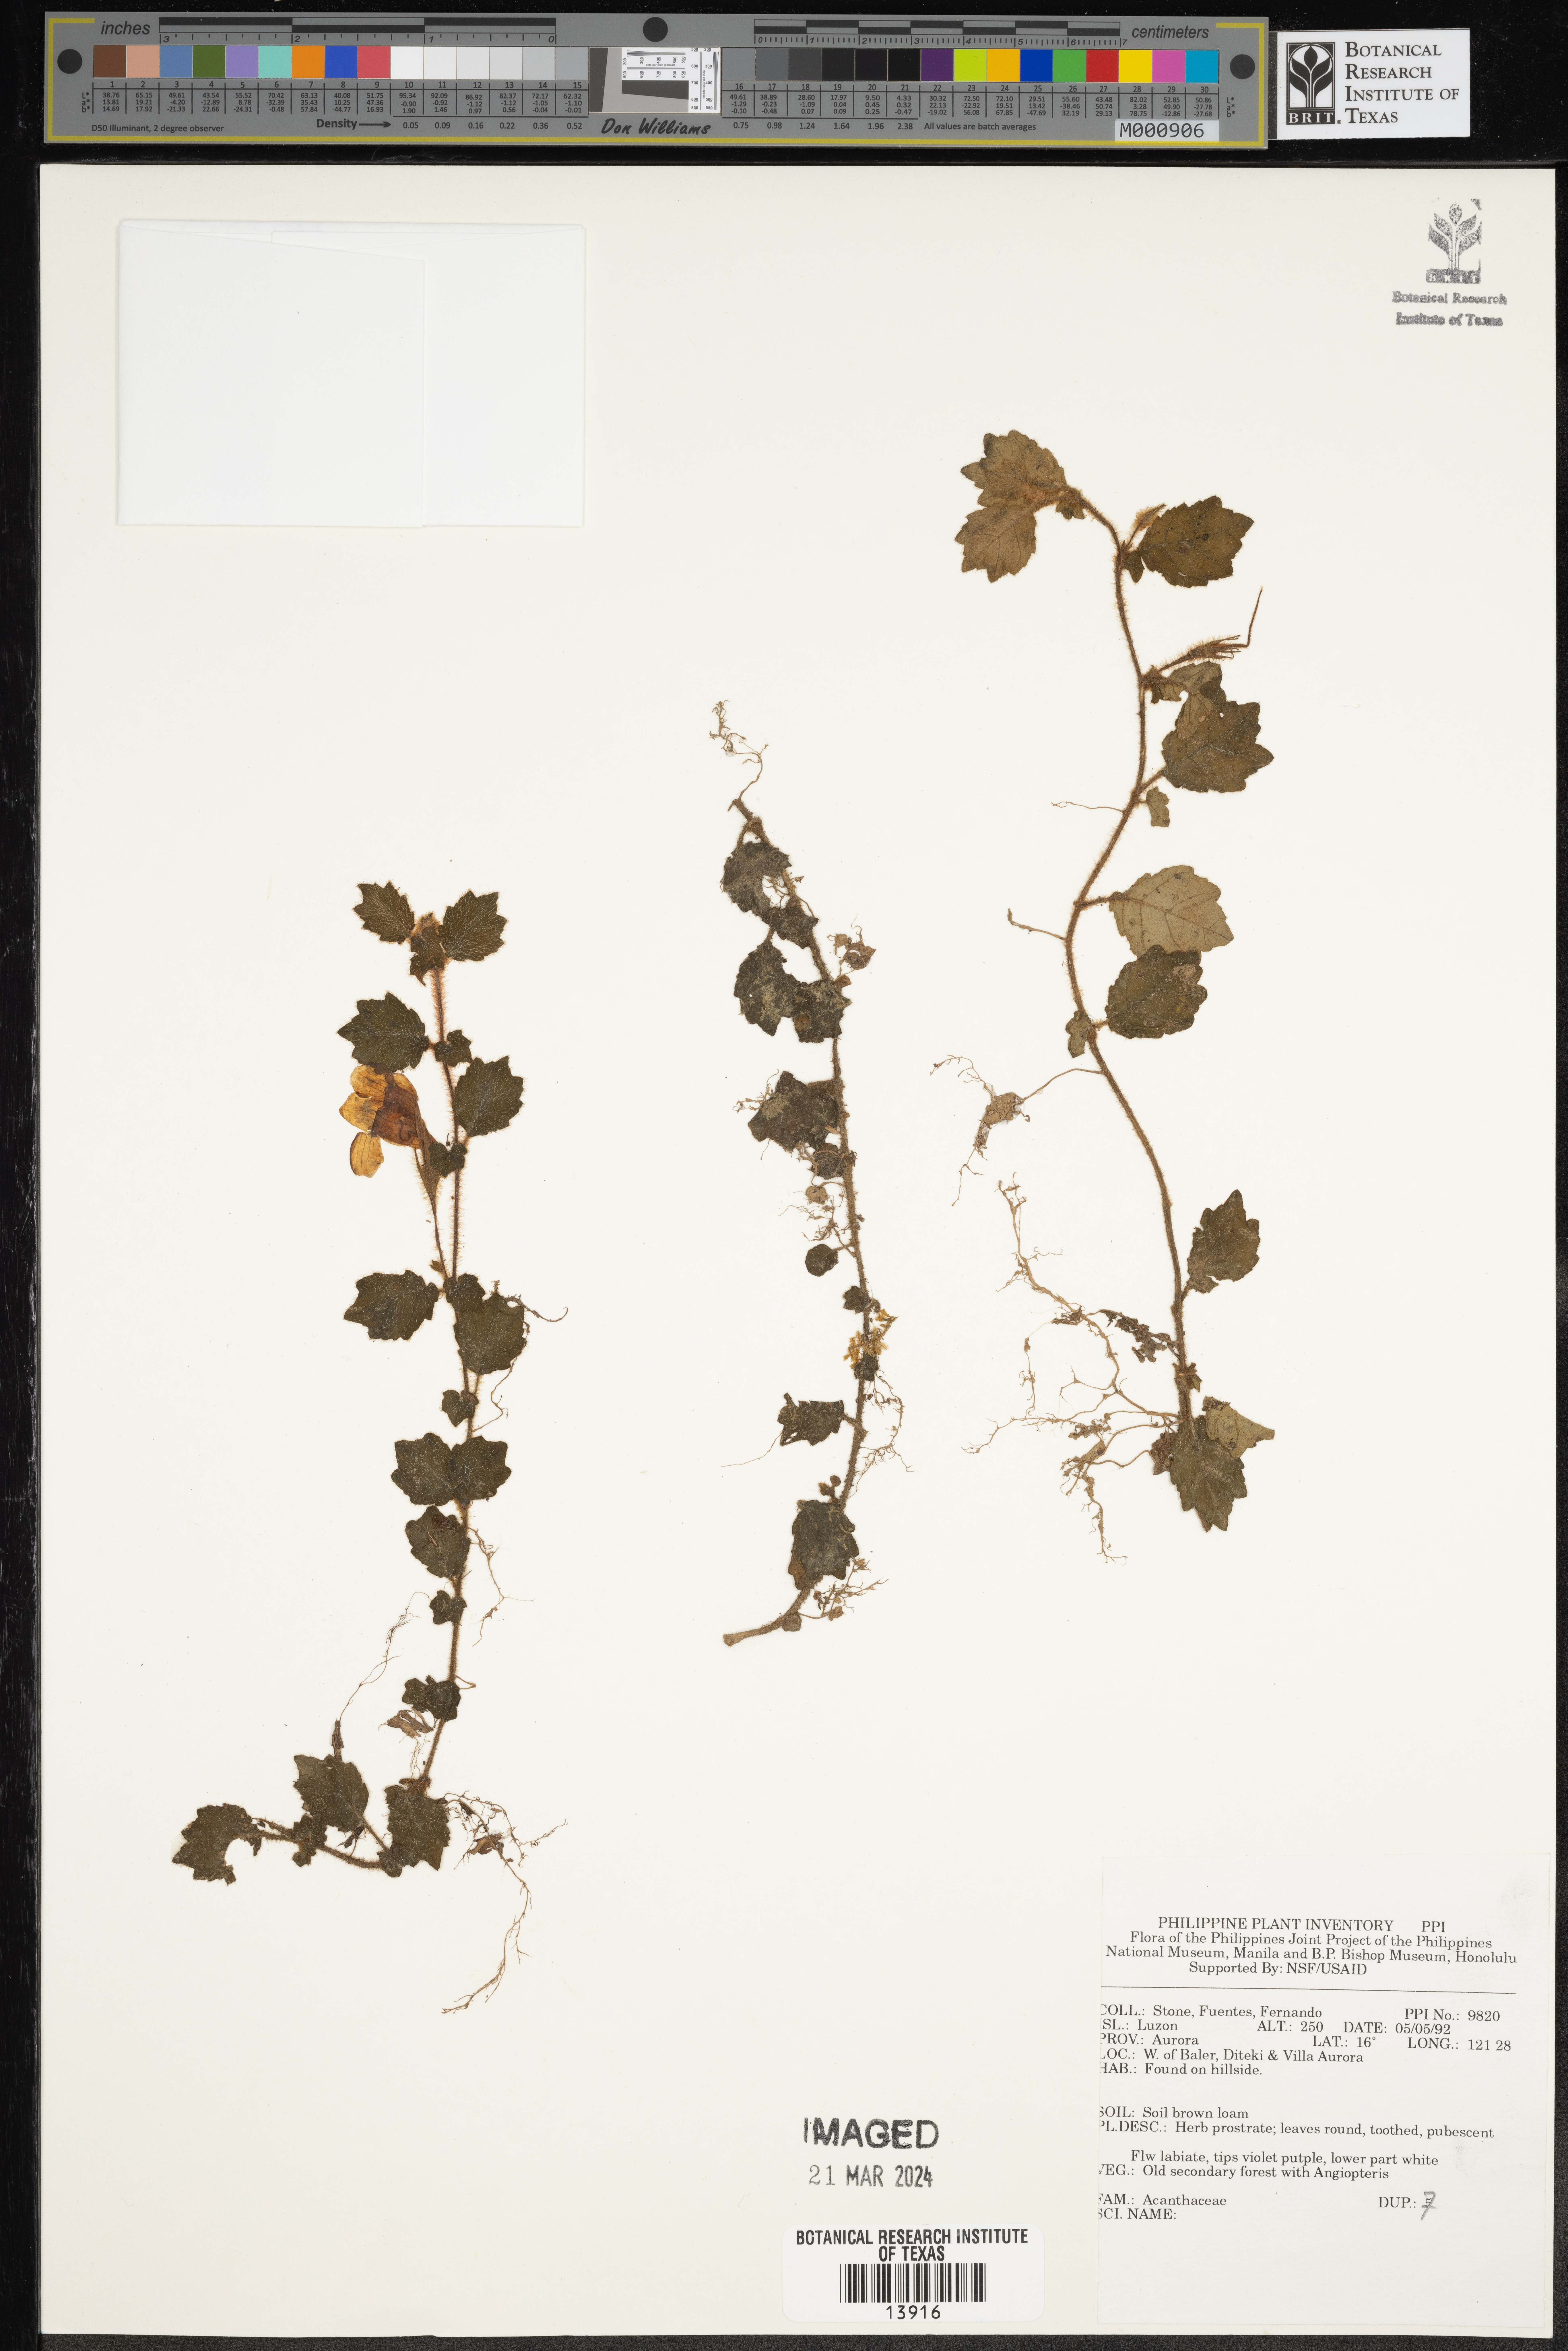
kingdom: Plantae
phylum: Tracheophyta
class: Magnoliopsida
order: Lamiales
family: Acanthaceae
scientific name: Acanthaceae
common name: Acanthaceae
